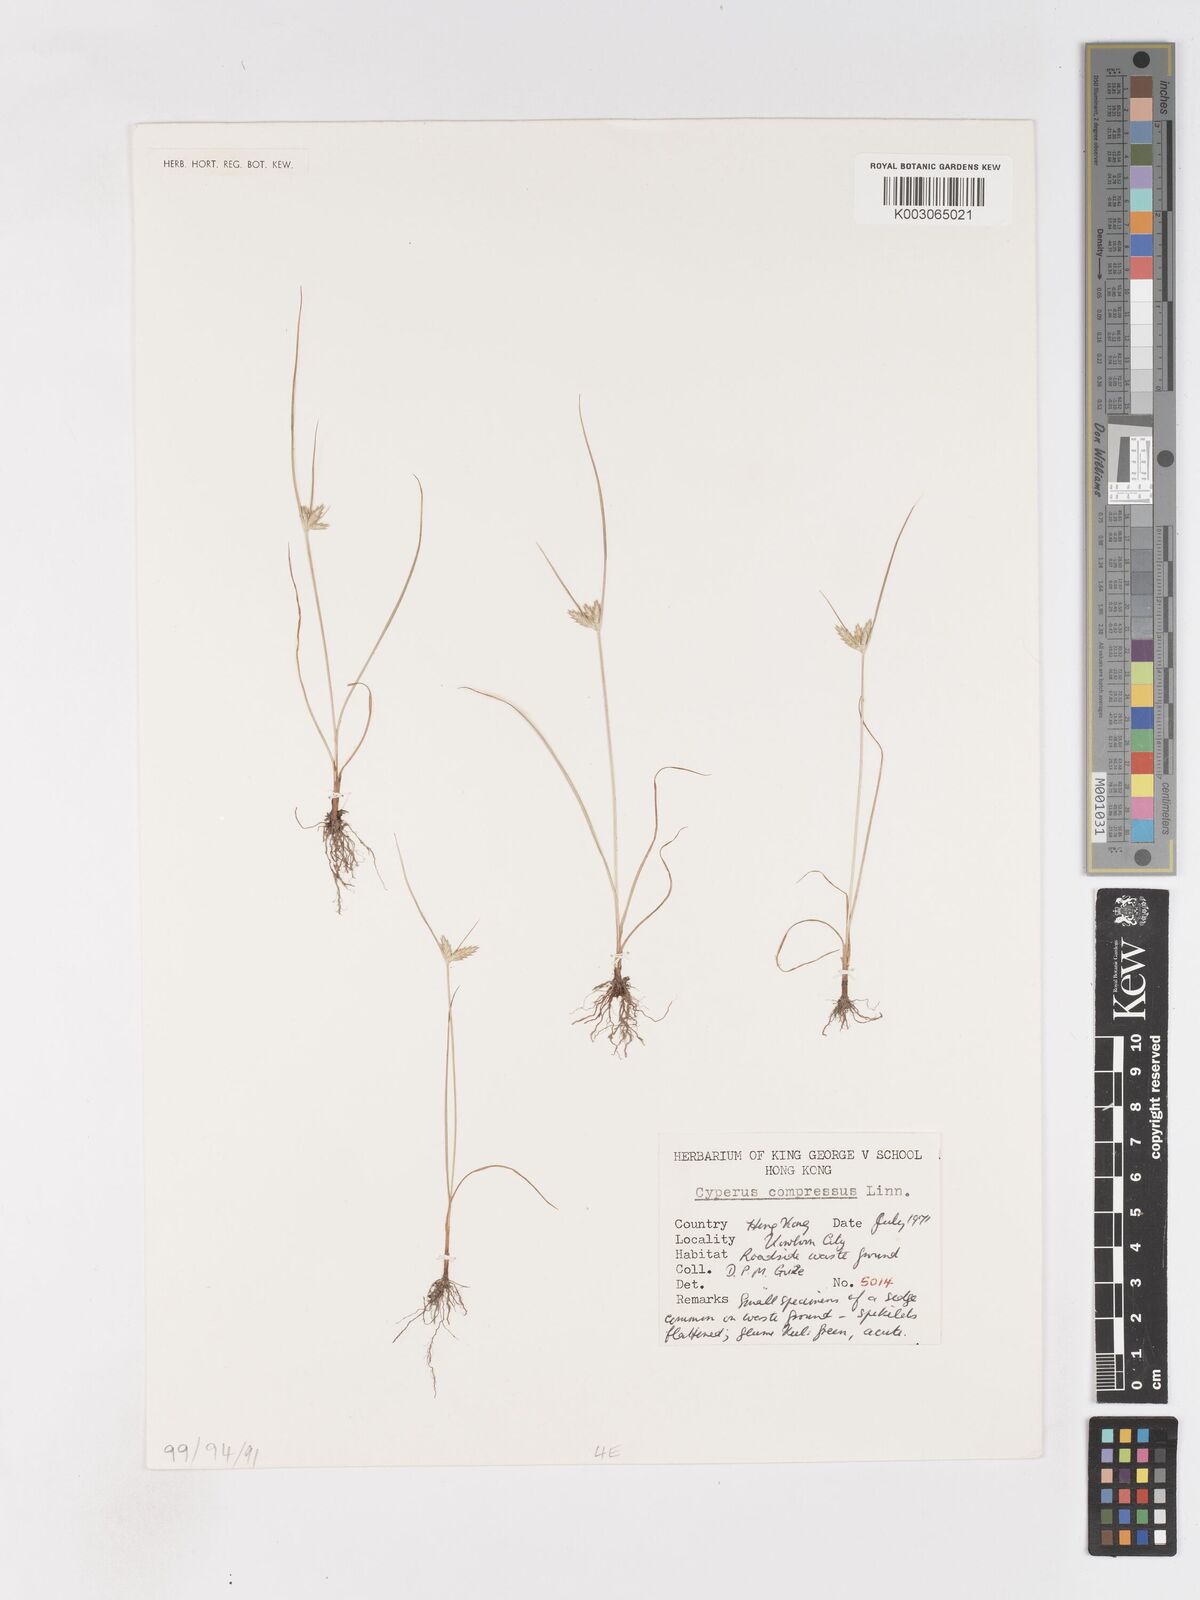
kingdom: Plantae
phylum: Tracheophyta
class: Liliopsida
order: Poales
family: Cyperaceae
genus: Cyperus
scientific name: Cyperus compressus
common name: Poorland flatsedge
